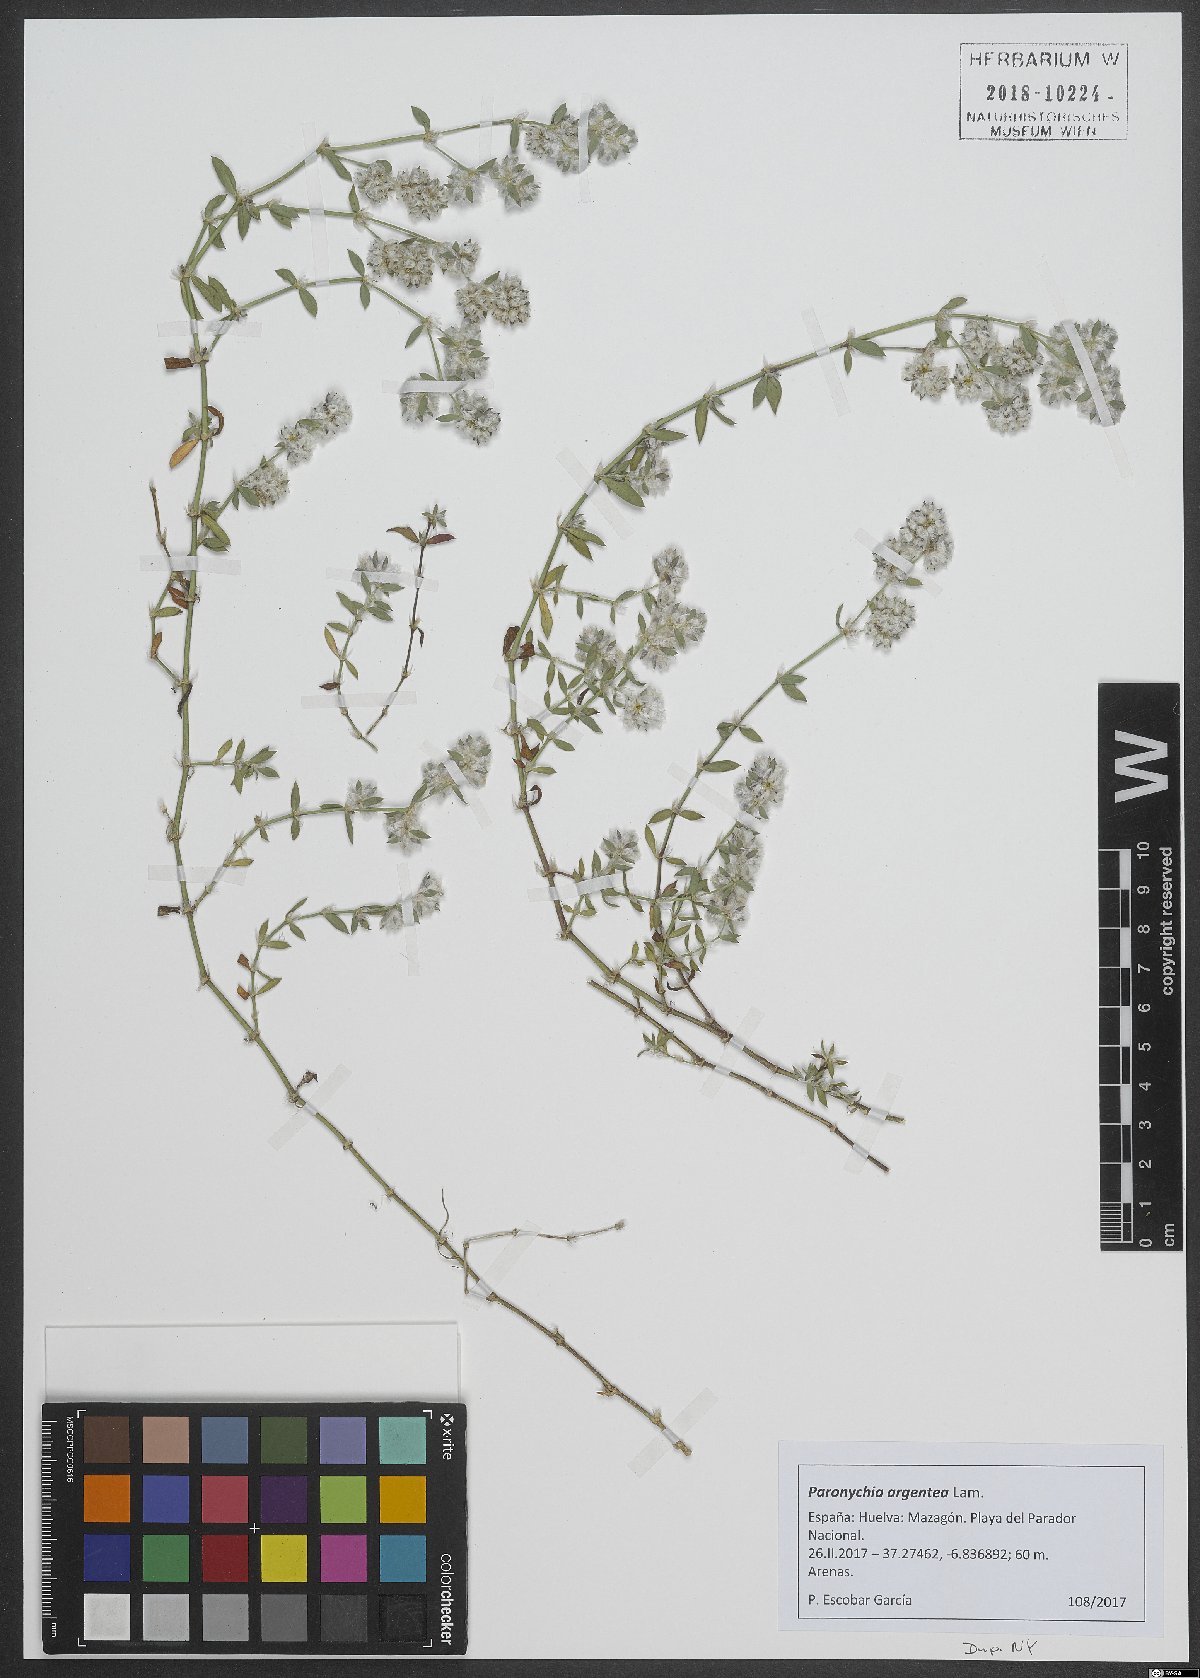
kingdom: Plantae
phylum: Tracheophyta
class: Magnoliopsida
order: Caryophyllales
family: Caryophyllaceae
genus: Paronychia
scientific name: Paronychia argentea
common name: Silver nailroot
